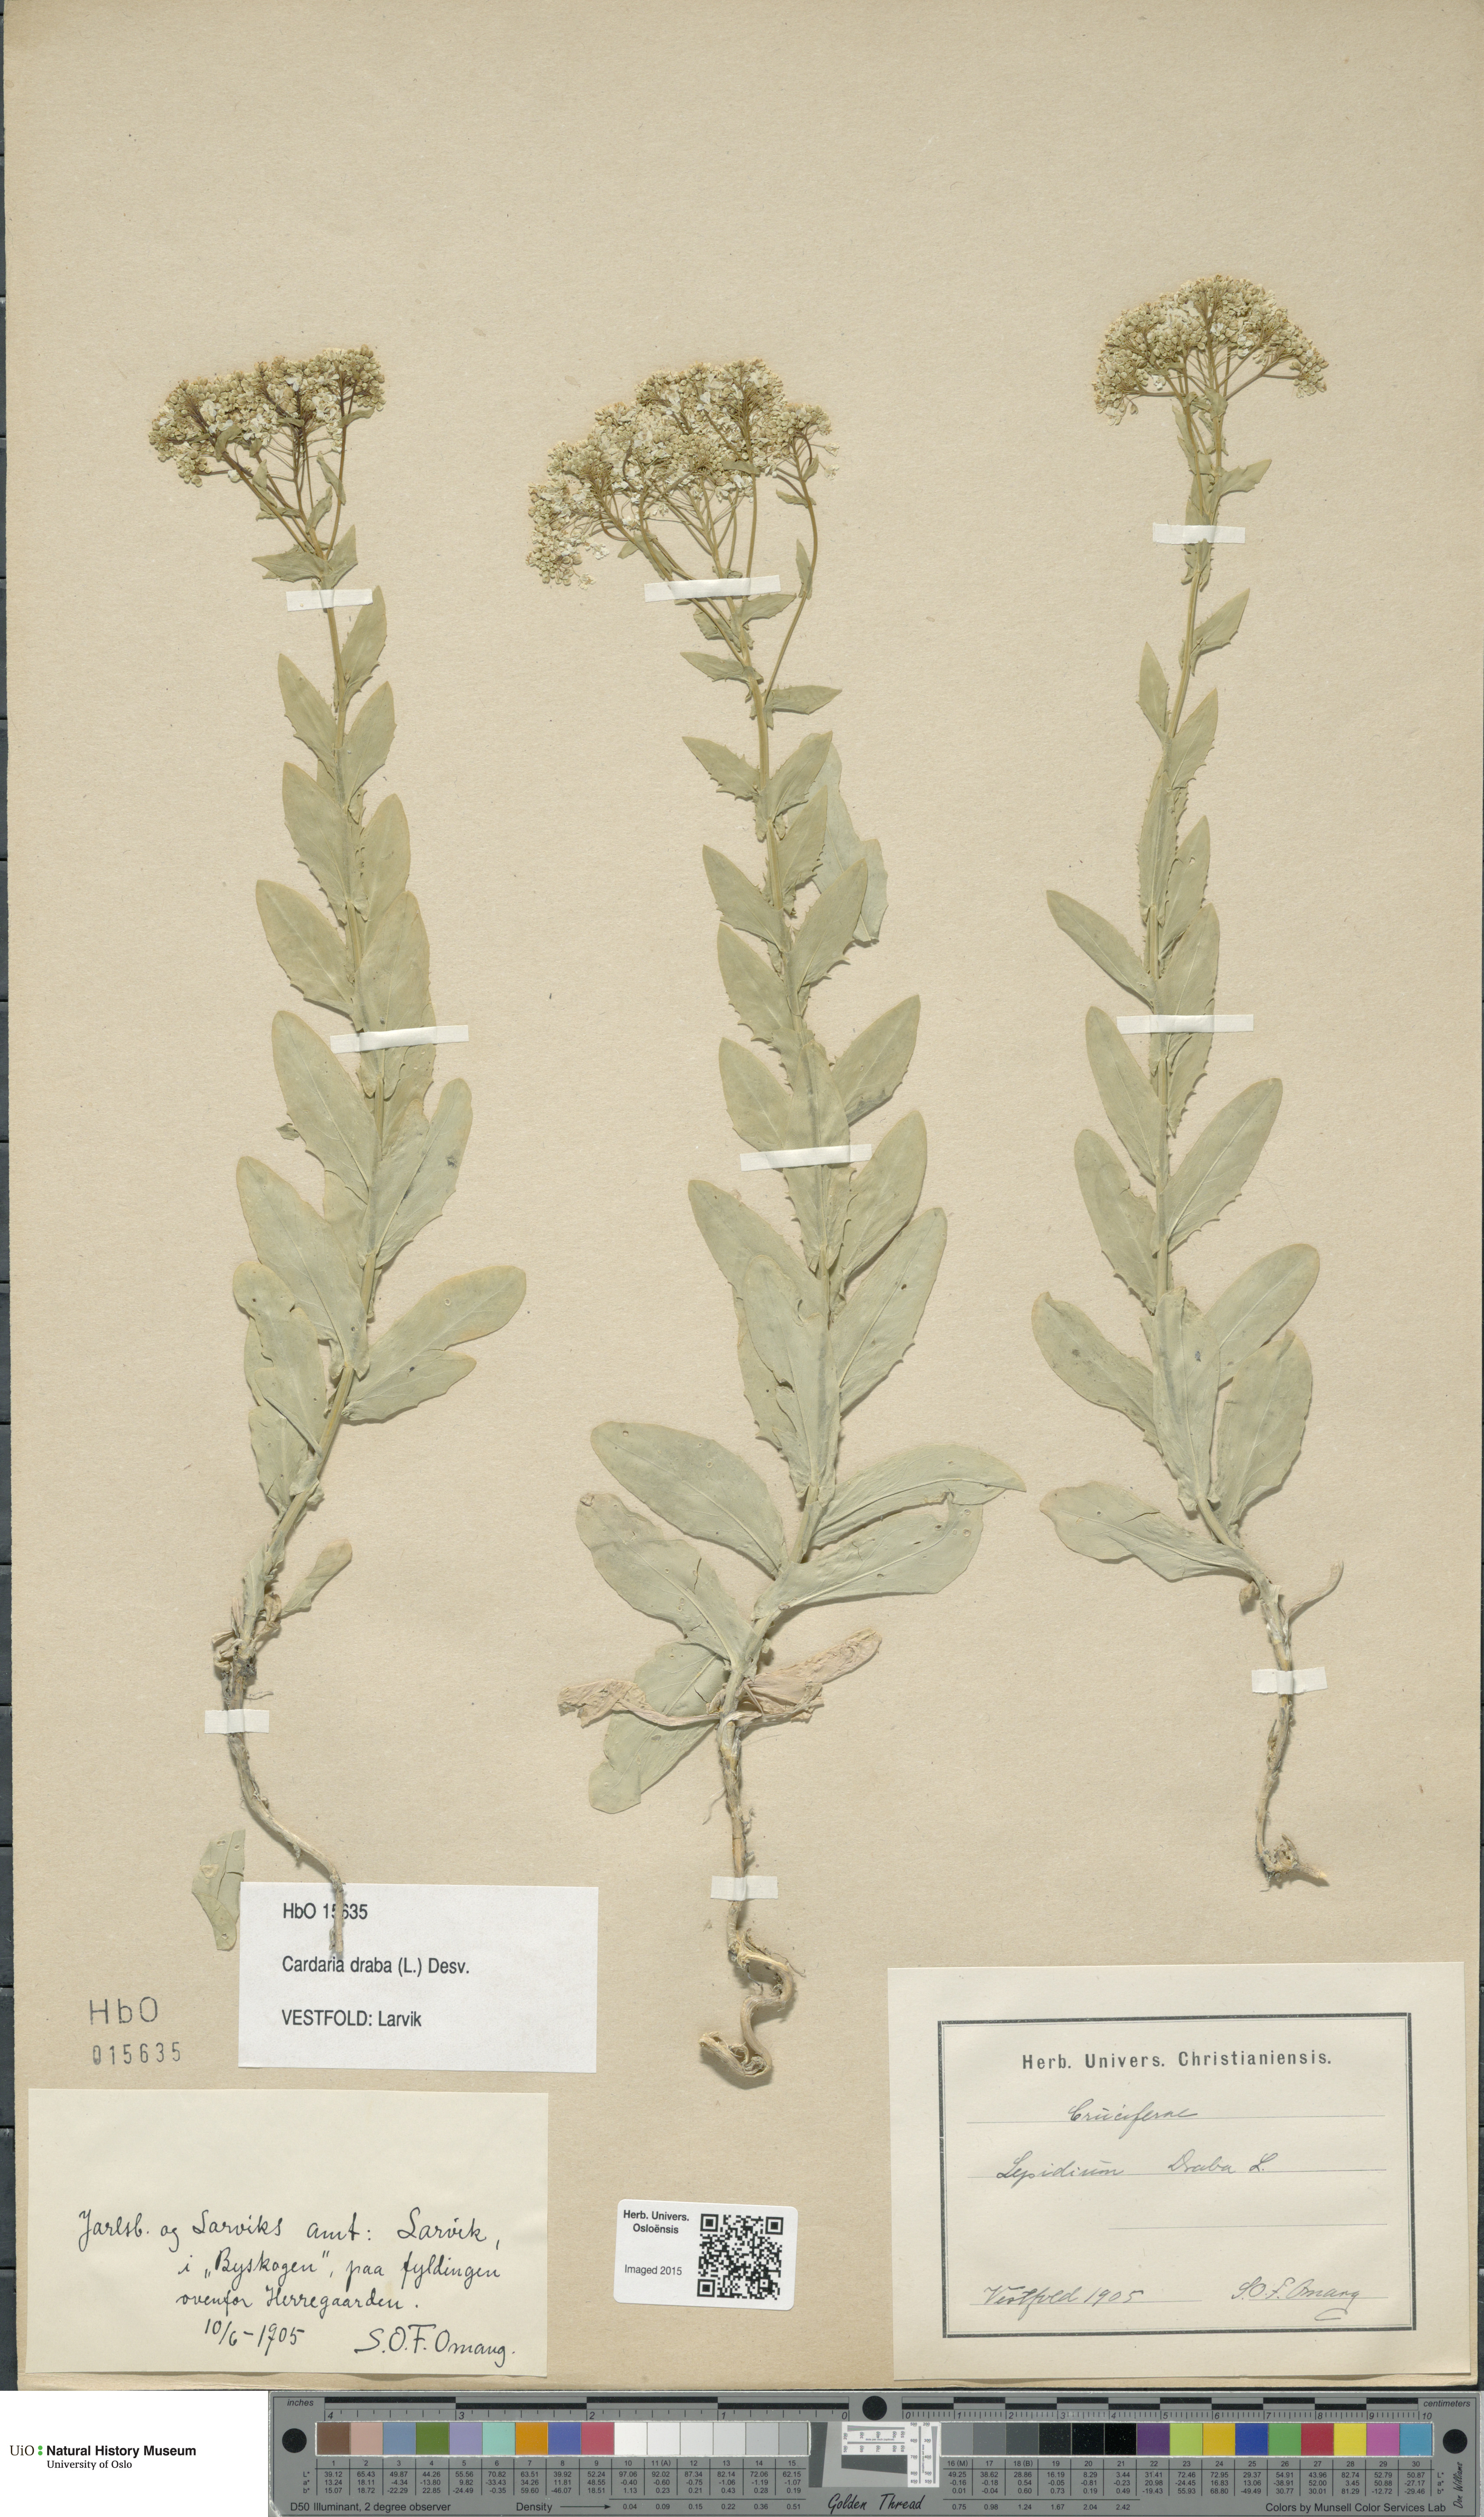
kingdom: Plantae
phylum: Tracheophyta
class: Magnoliopsida
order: Brassicales
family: Brassicaceae
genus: Lepidium
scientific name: Lepidium draba
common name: Hoary cress
